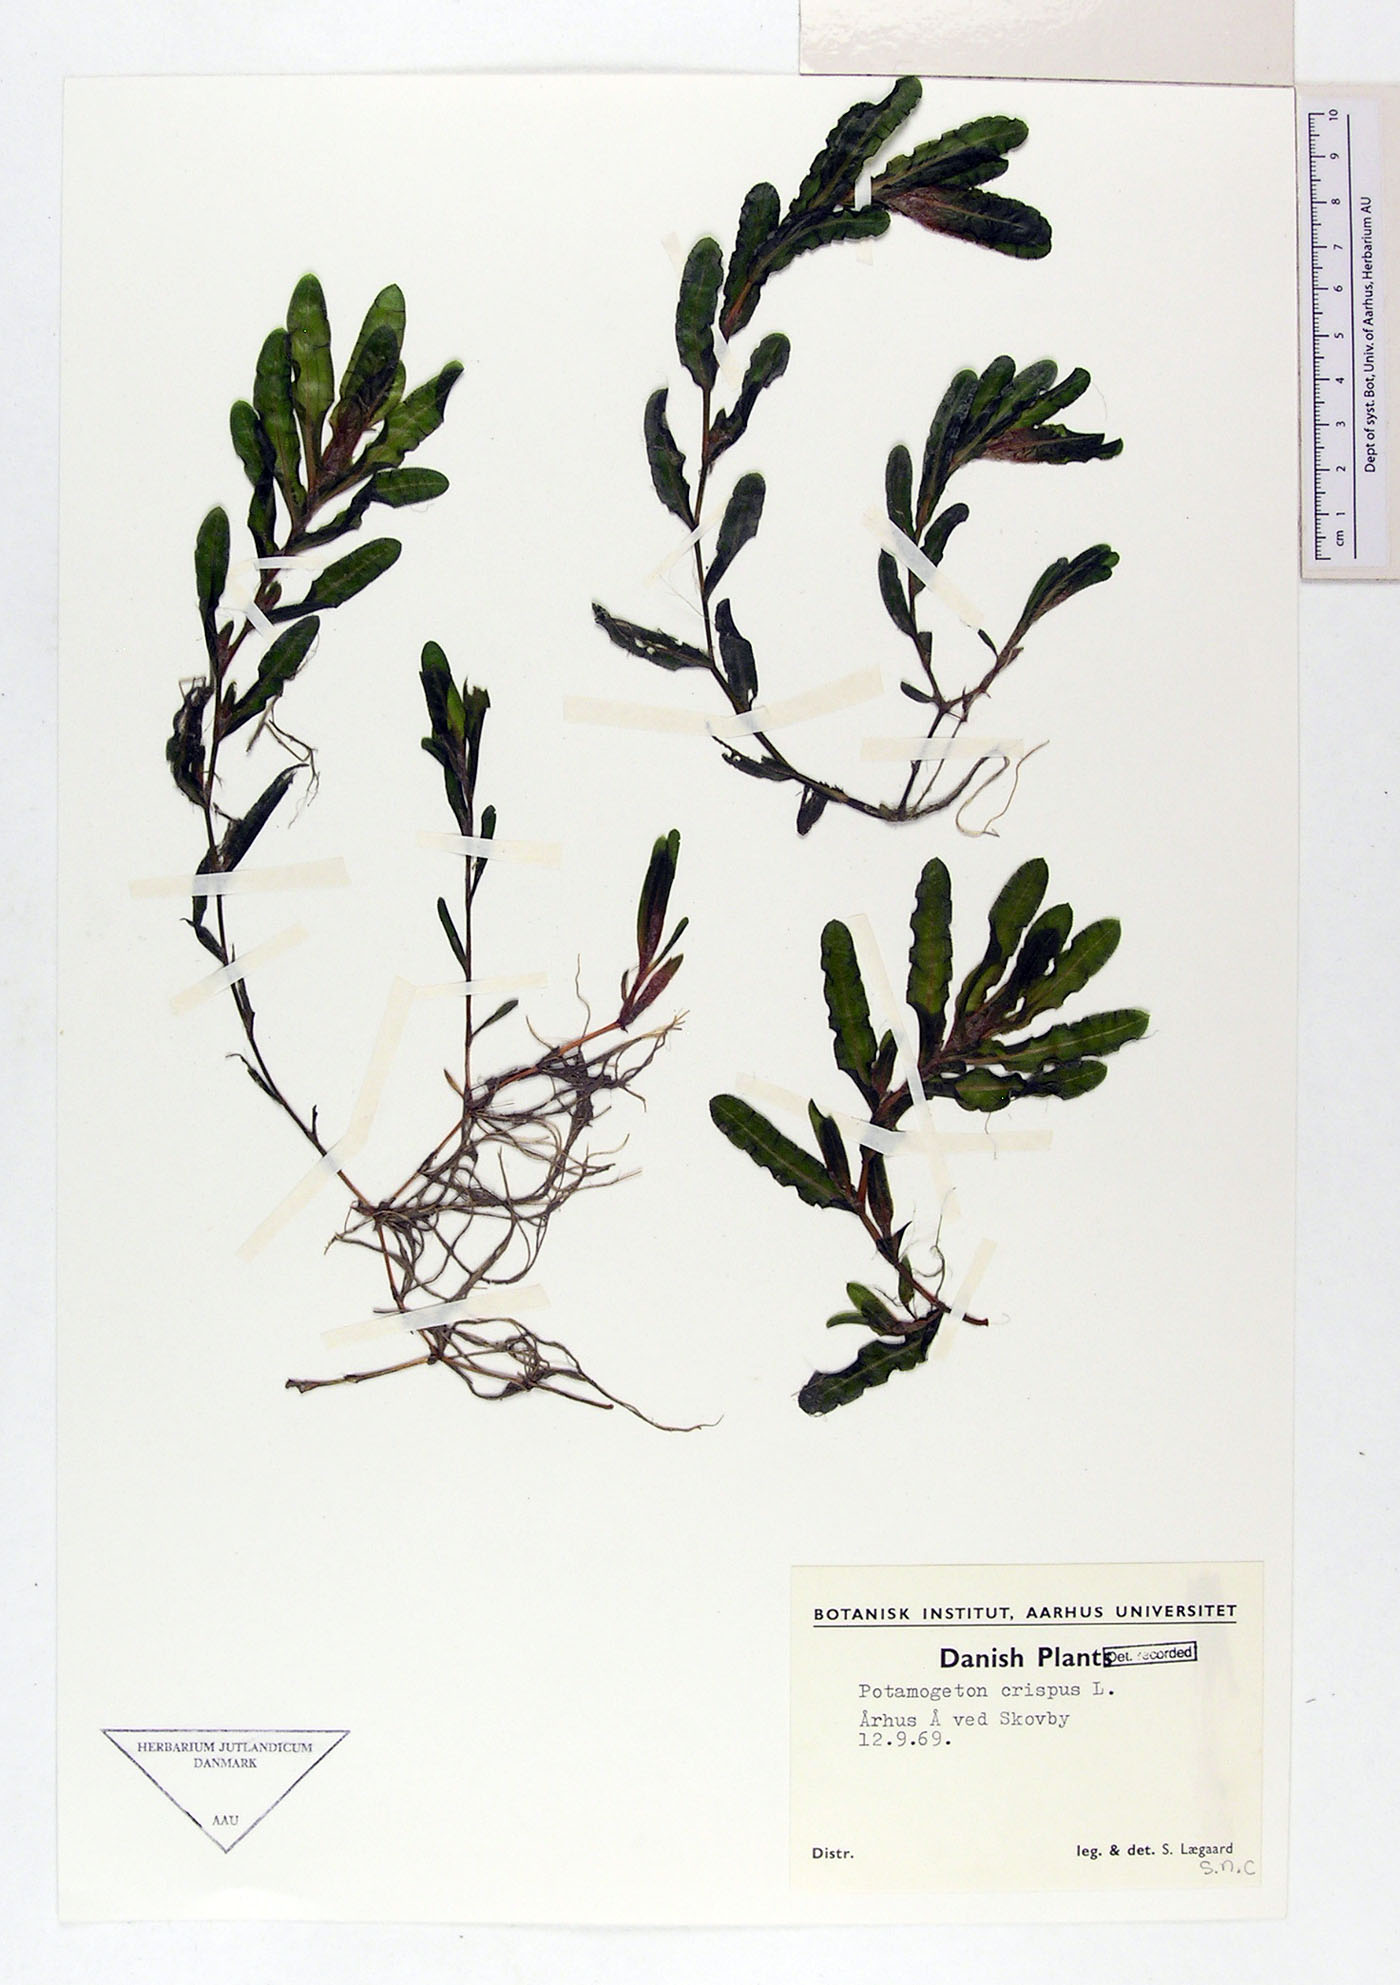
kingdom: Plantae
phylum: Tracheophyta
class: Liliopsida
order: Alismatales
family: Potamogetonaceae
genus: Potamogeton
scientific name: Potamogeton crispus
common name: Curled pondweed
